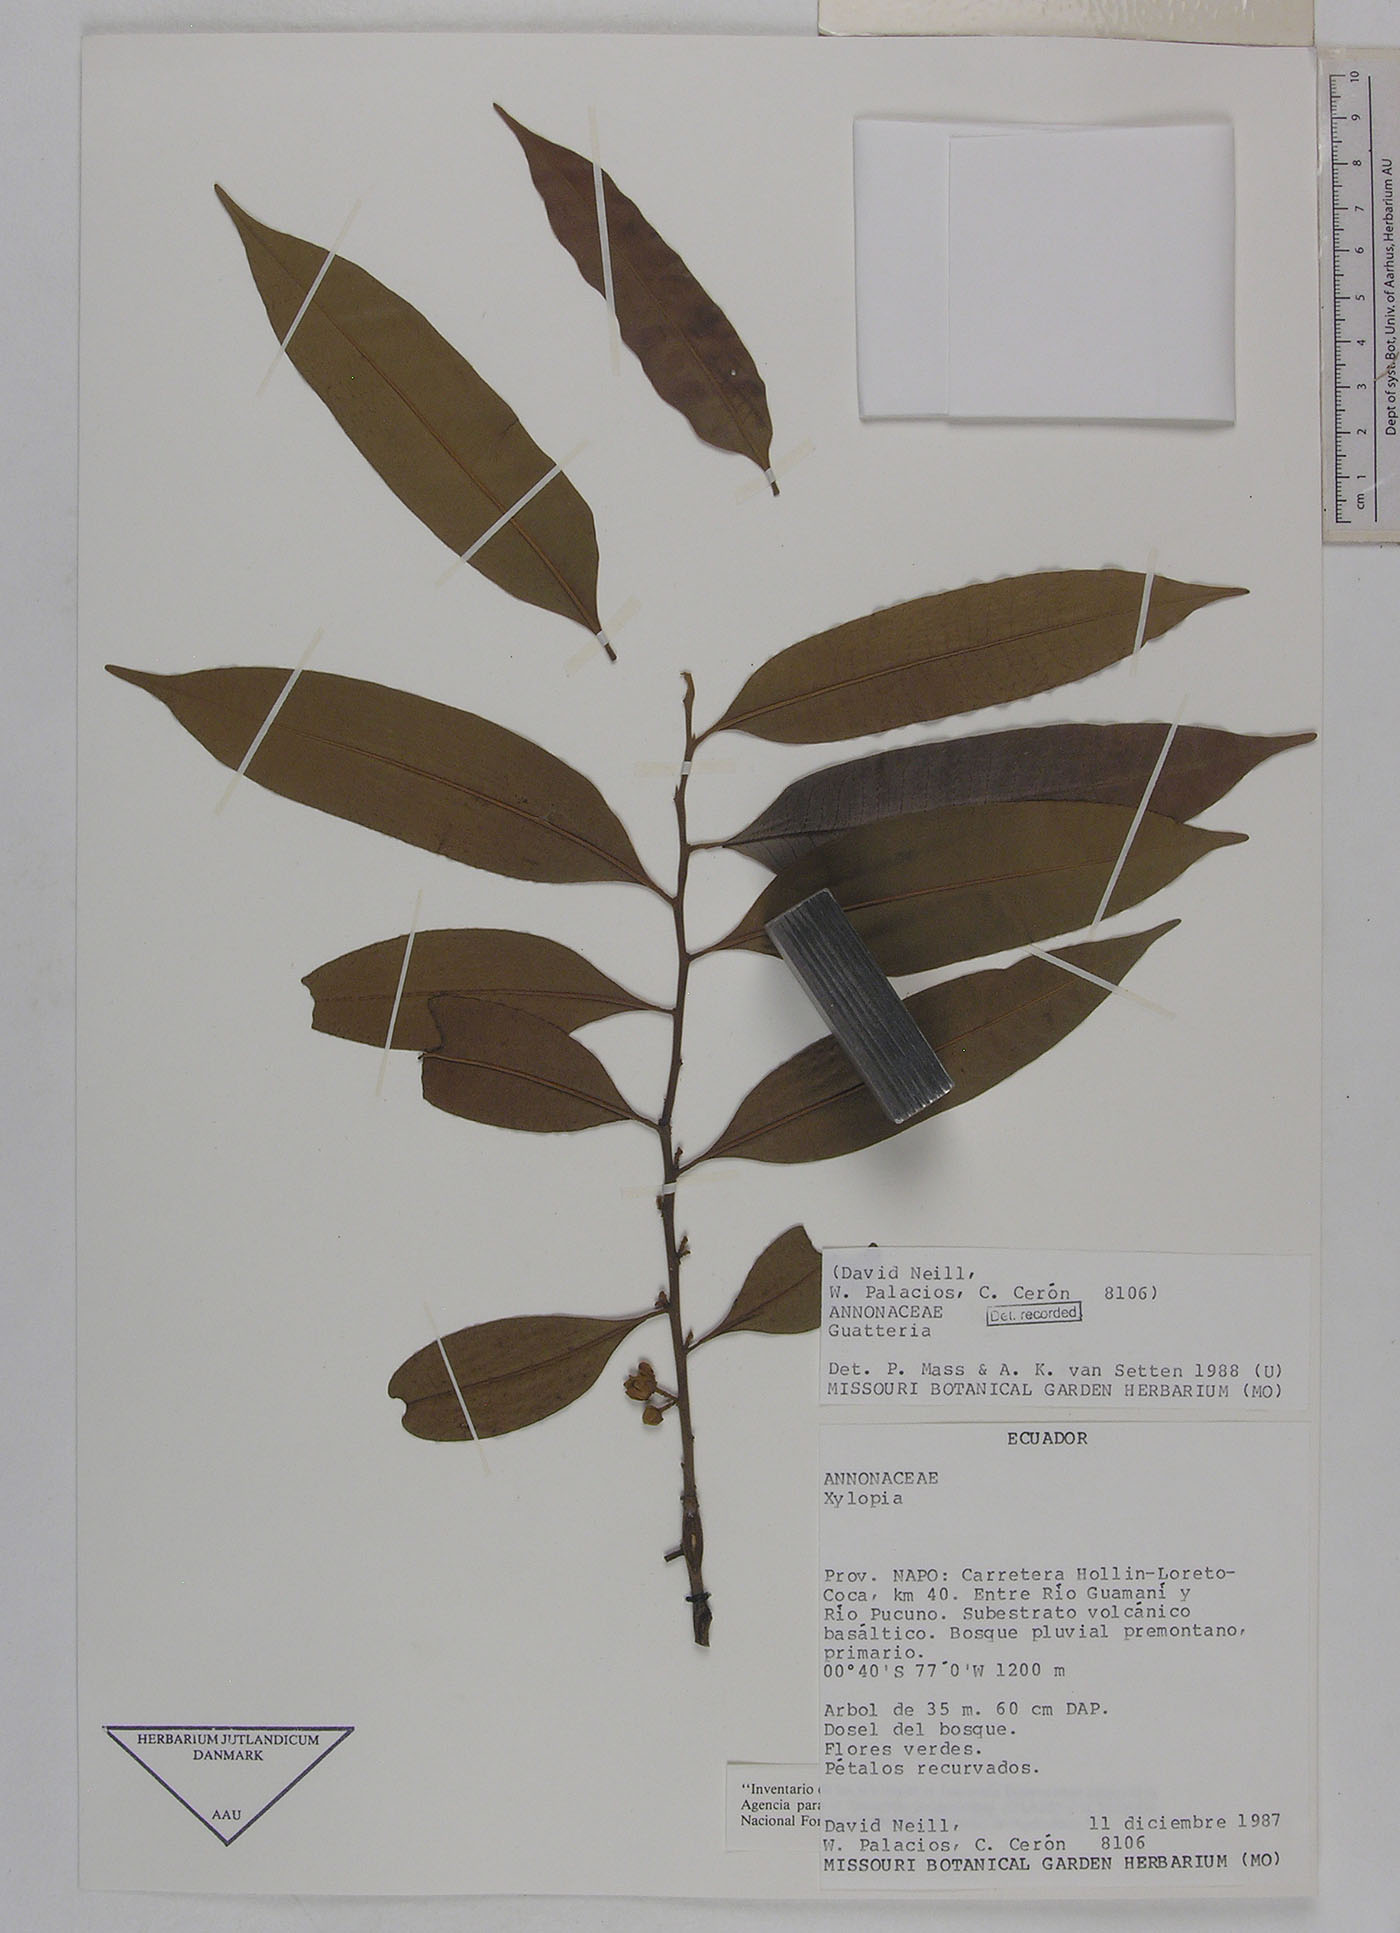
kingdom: Plantae
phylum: Tracheophyta
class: Magnoliopsida
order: Magnoliales
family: Annonaceae
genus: Guatteria
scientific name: Guatteria duodecima
